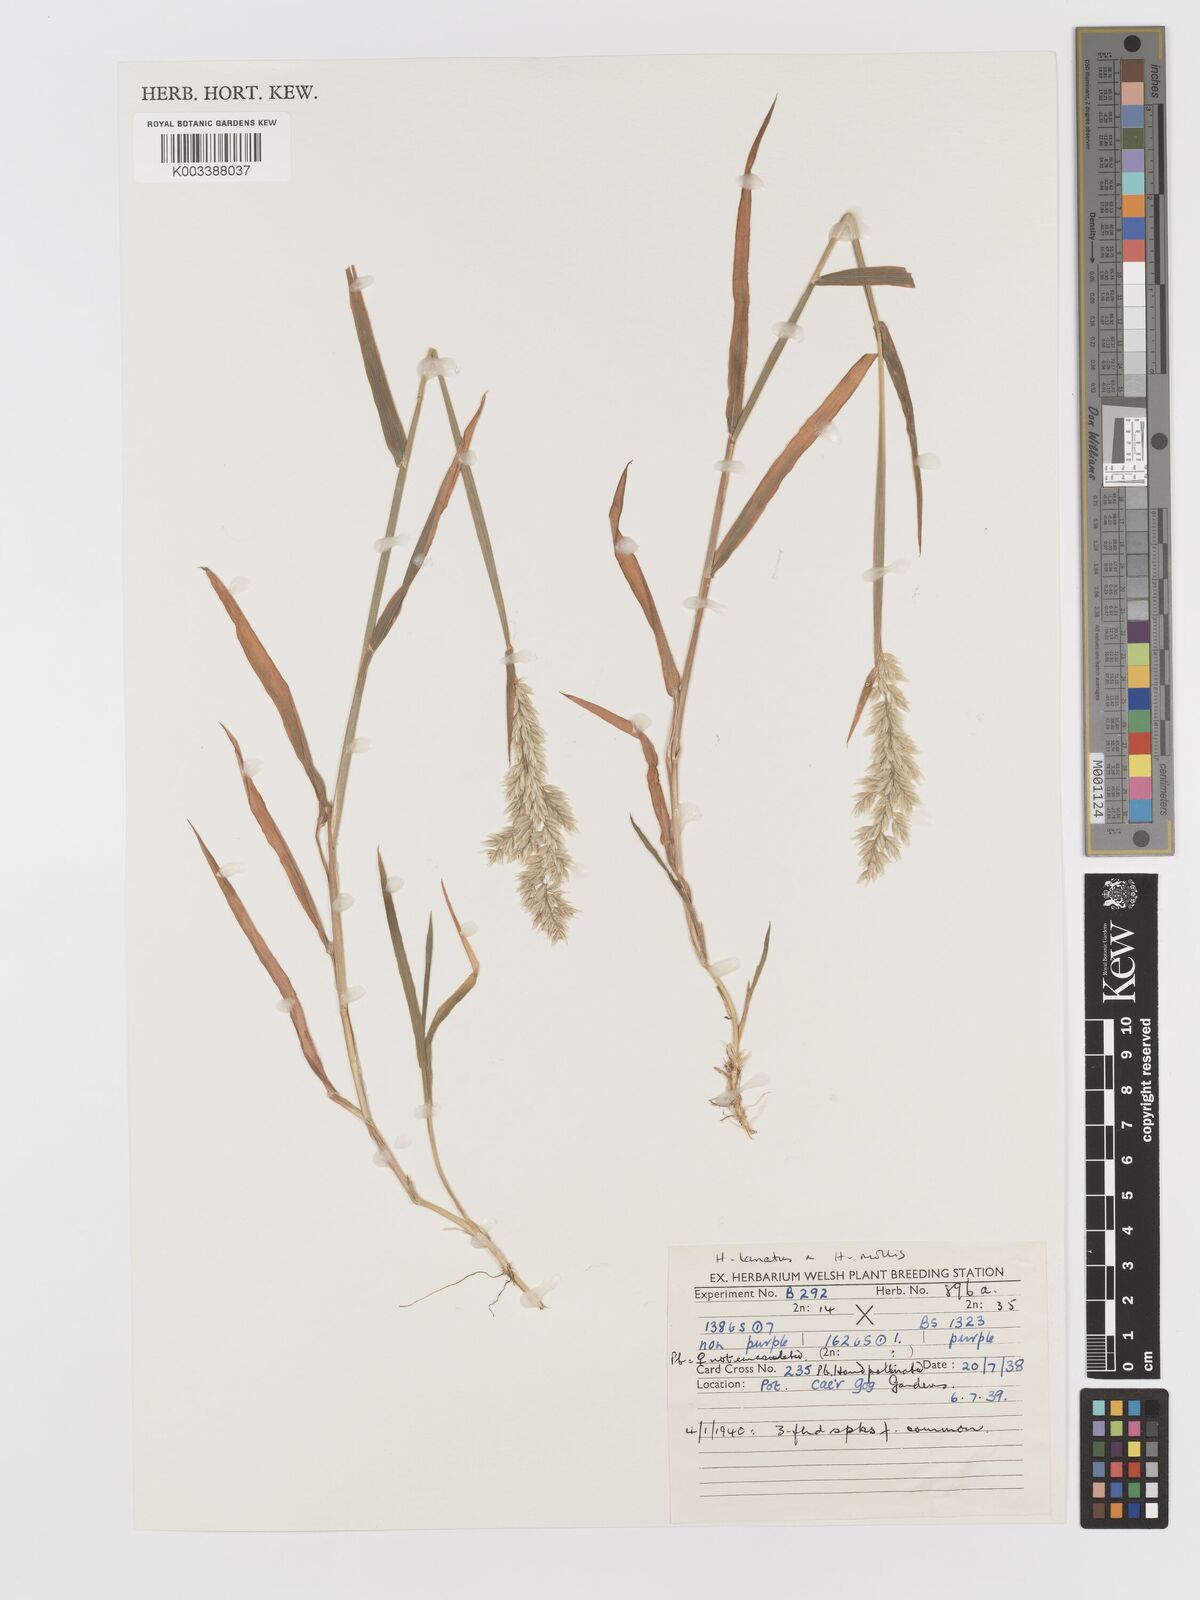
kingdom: Plantae
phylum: Tracheophyta
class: Liliopsida
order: Poales
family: Poaceae
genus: Holcus
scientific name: Holcus lanatus
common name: Yorkshire-fog
